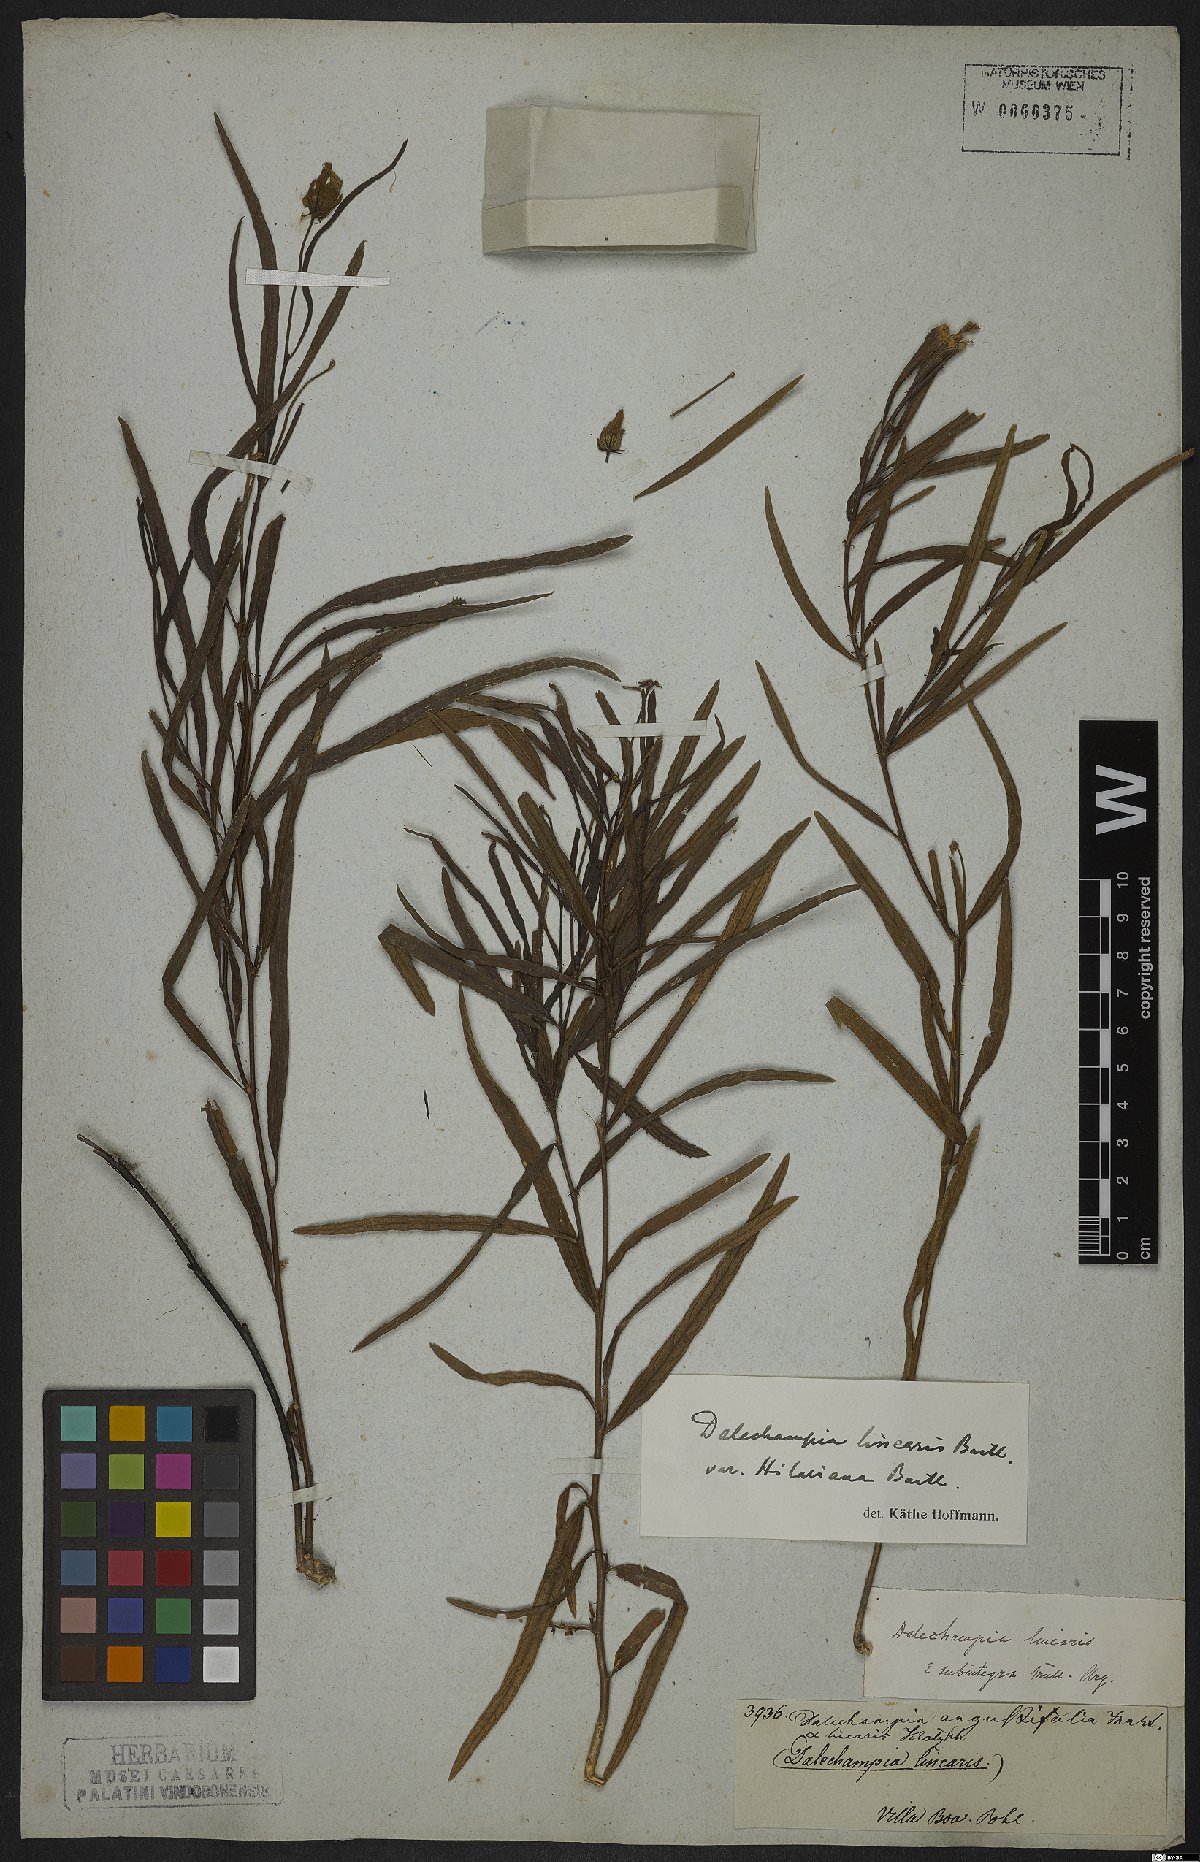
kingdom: Plantae
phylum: Tracheophyta
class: Magnoliopsida
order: Malpighiales
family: Euphorbiaceae
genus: Dalechampia
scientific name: Dalechampia linearis
